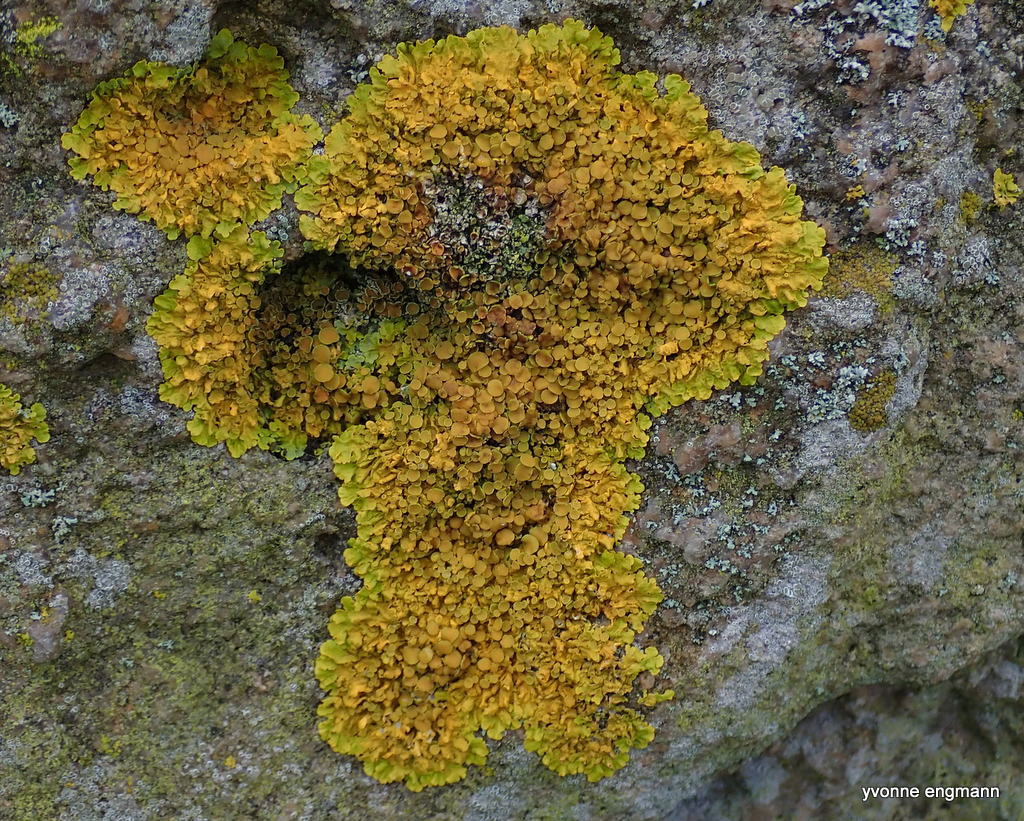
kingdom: Fungi
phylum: Ascomycota
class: Lecanoromycetes
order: Teloschistales
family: Teloschistaceae
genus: Xanthoria
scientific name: Xanthoria parietina
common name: almindelig væggelav
